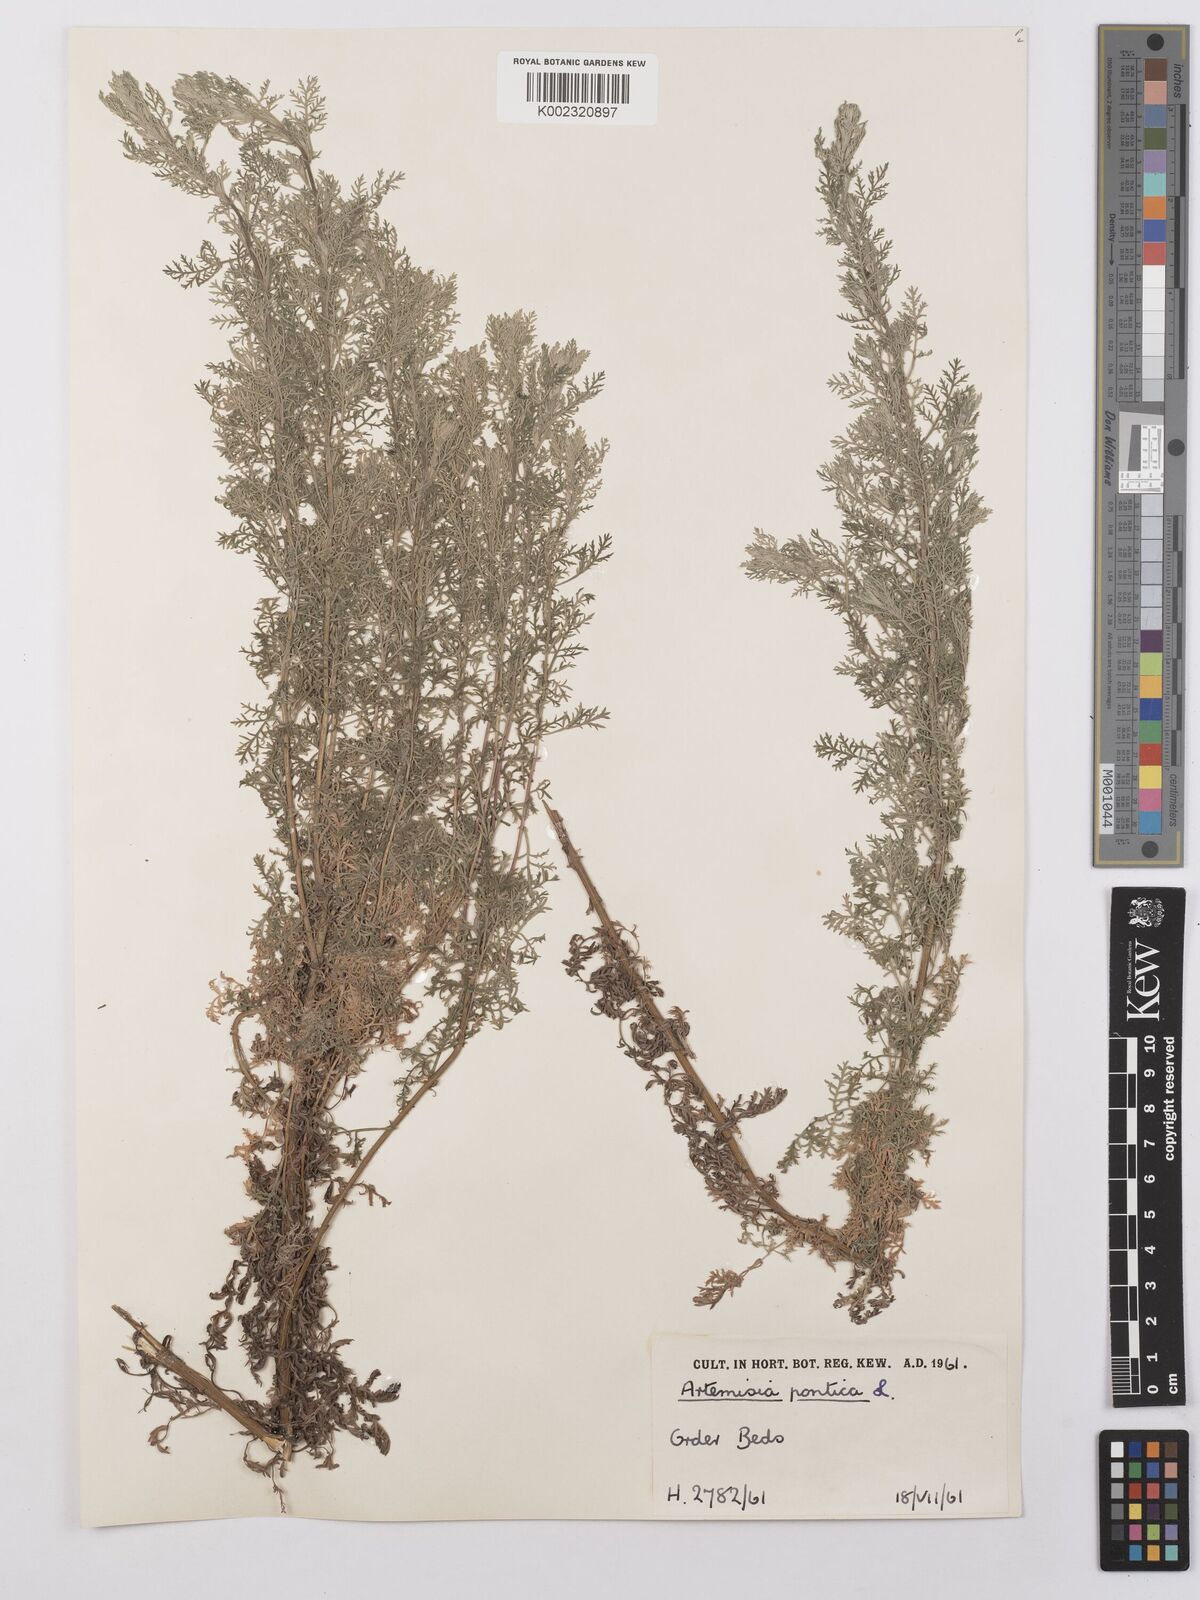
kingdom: Plantae
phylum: Tracheophyta
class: Magnoliopsida
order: Asterales
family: Asteraceae
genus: Artemisia
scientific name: Artemisia pontica
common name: Roman wormwood
